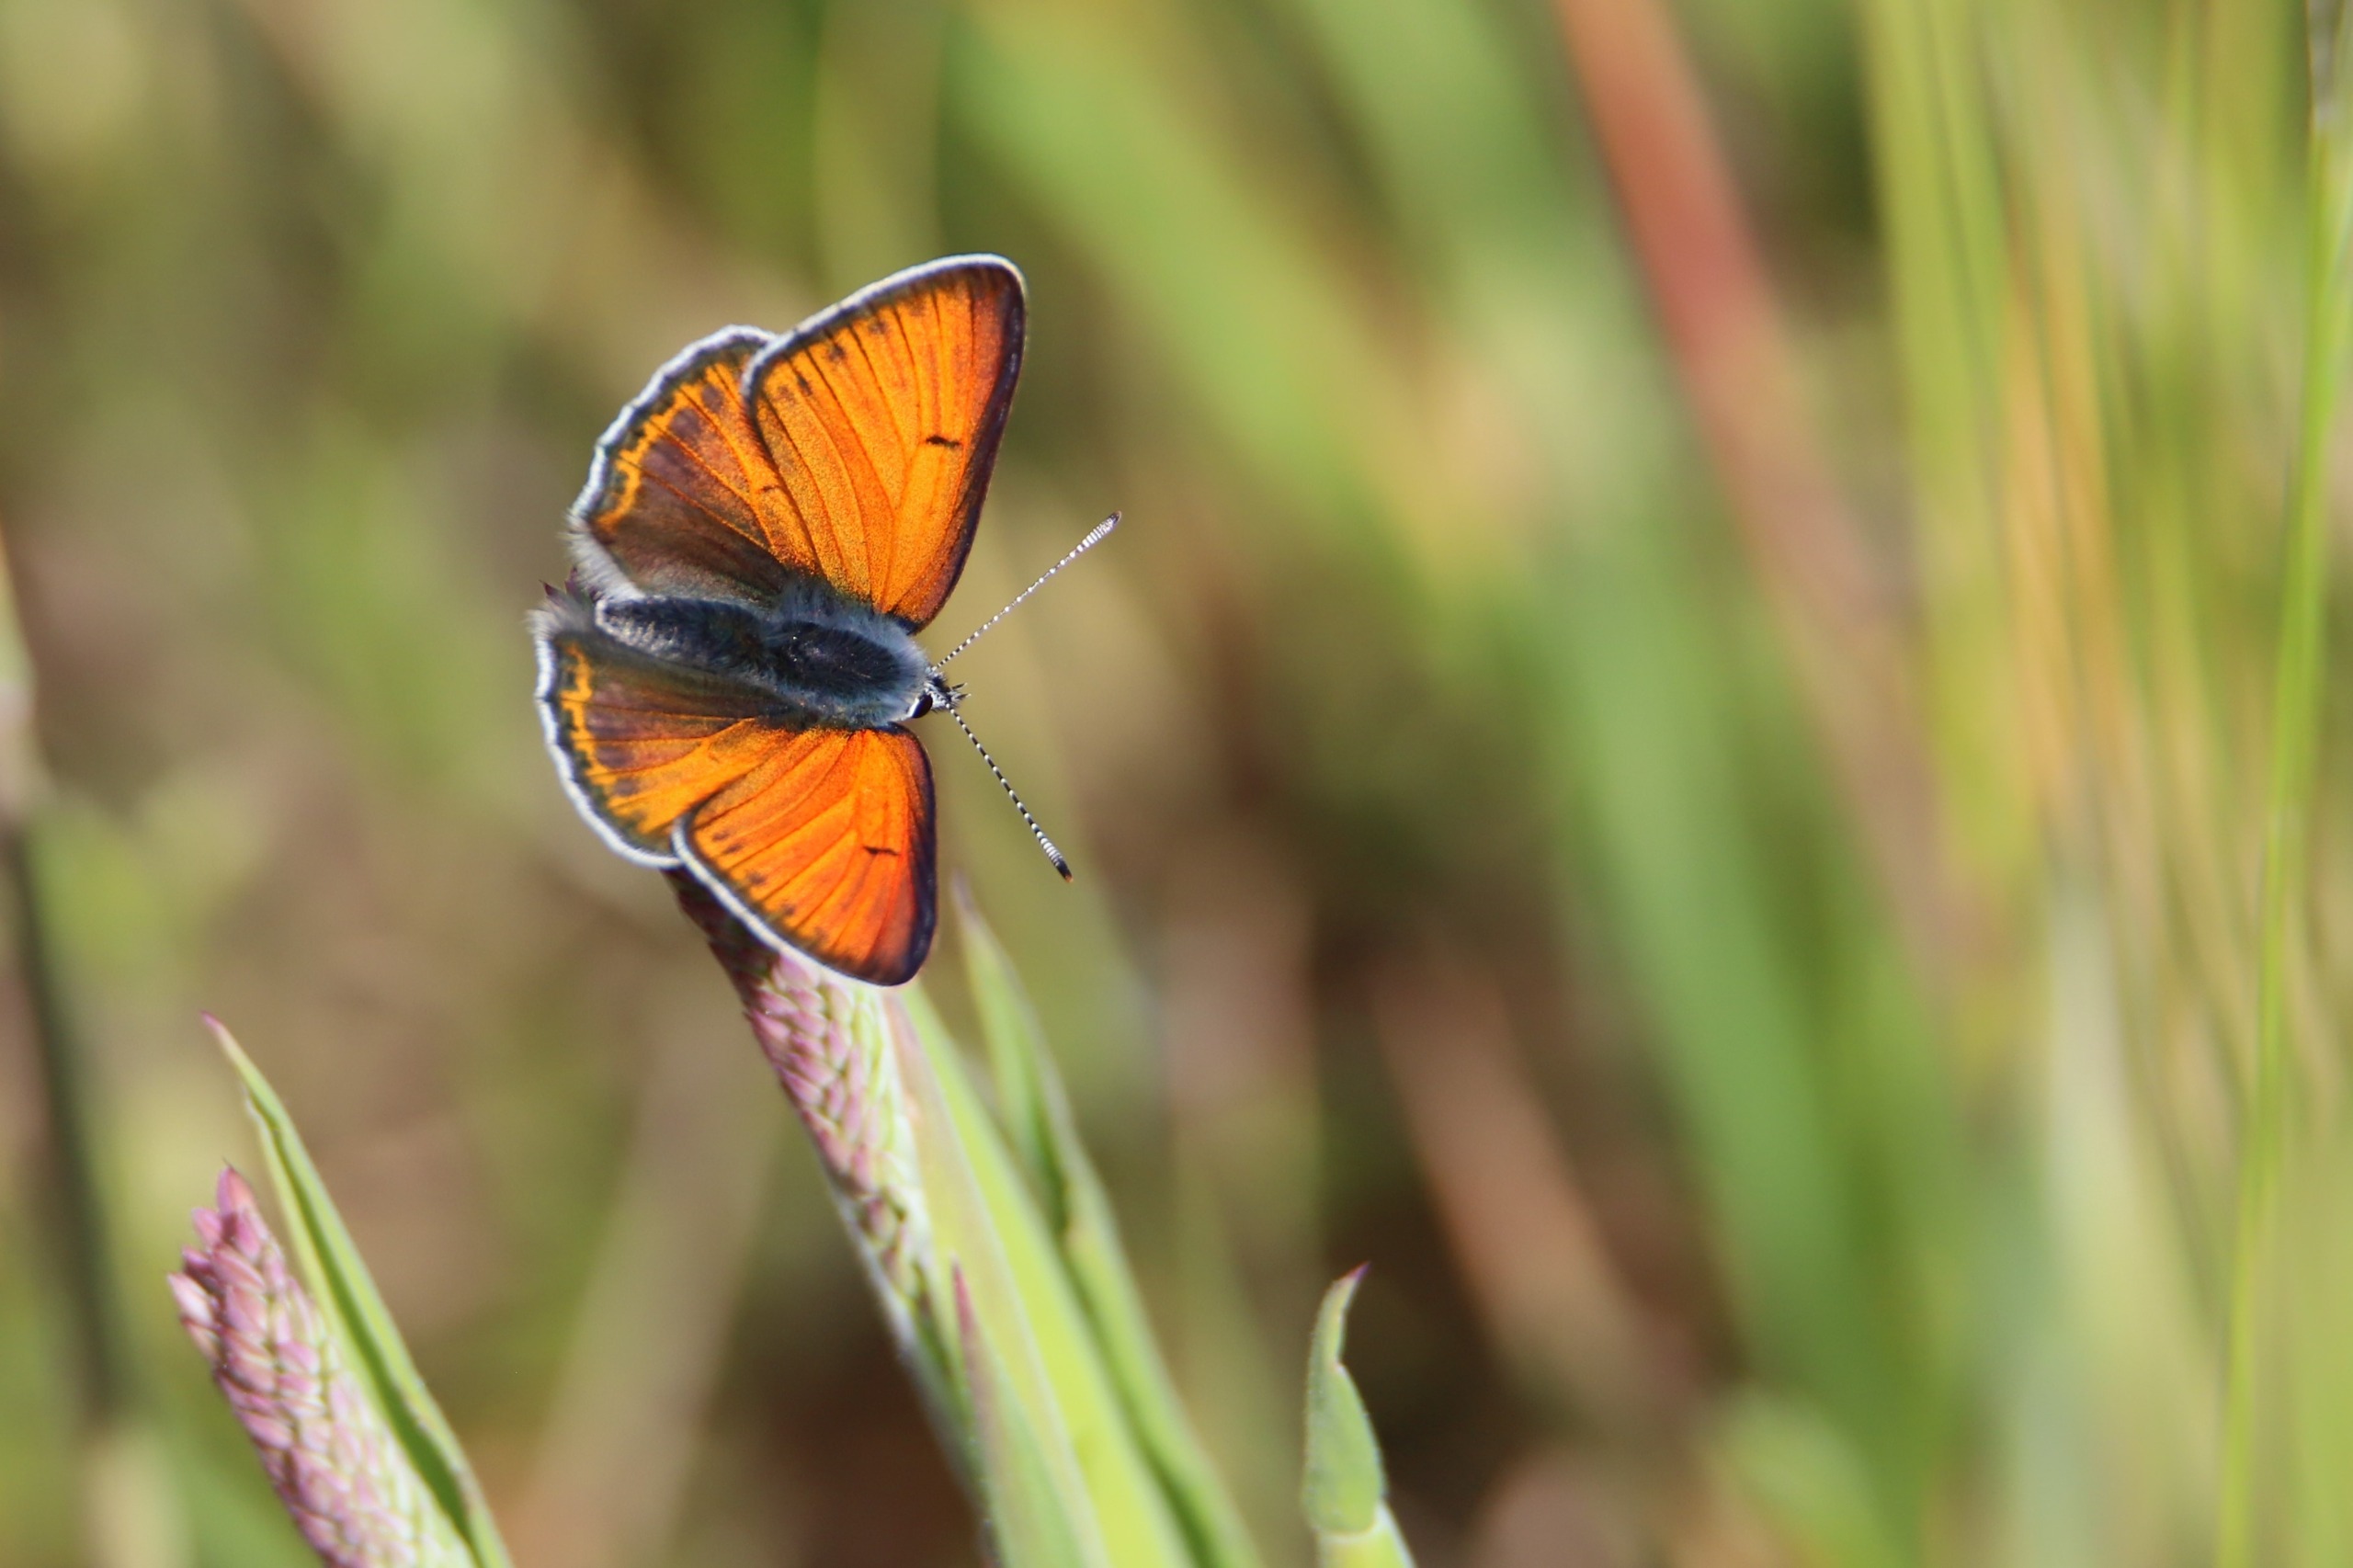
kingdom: Animalia
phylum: Arthropoda
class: Insecta
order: Lepidoptera
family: Lycaenidae
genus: Palaeochrysophanus
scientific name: Palaeochrysophanus hippothoe
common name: Violetrandet ildfugl
